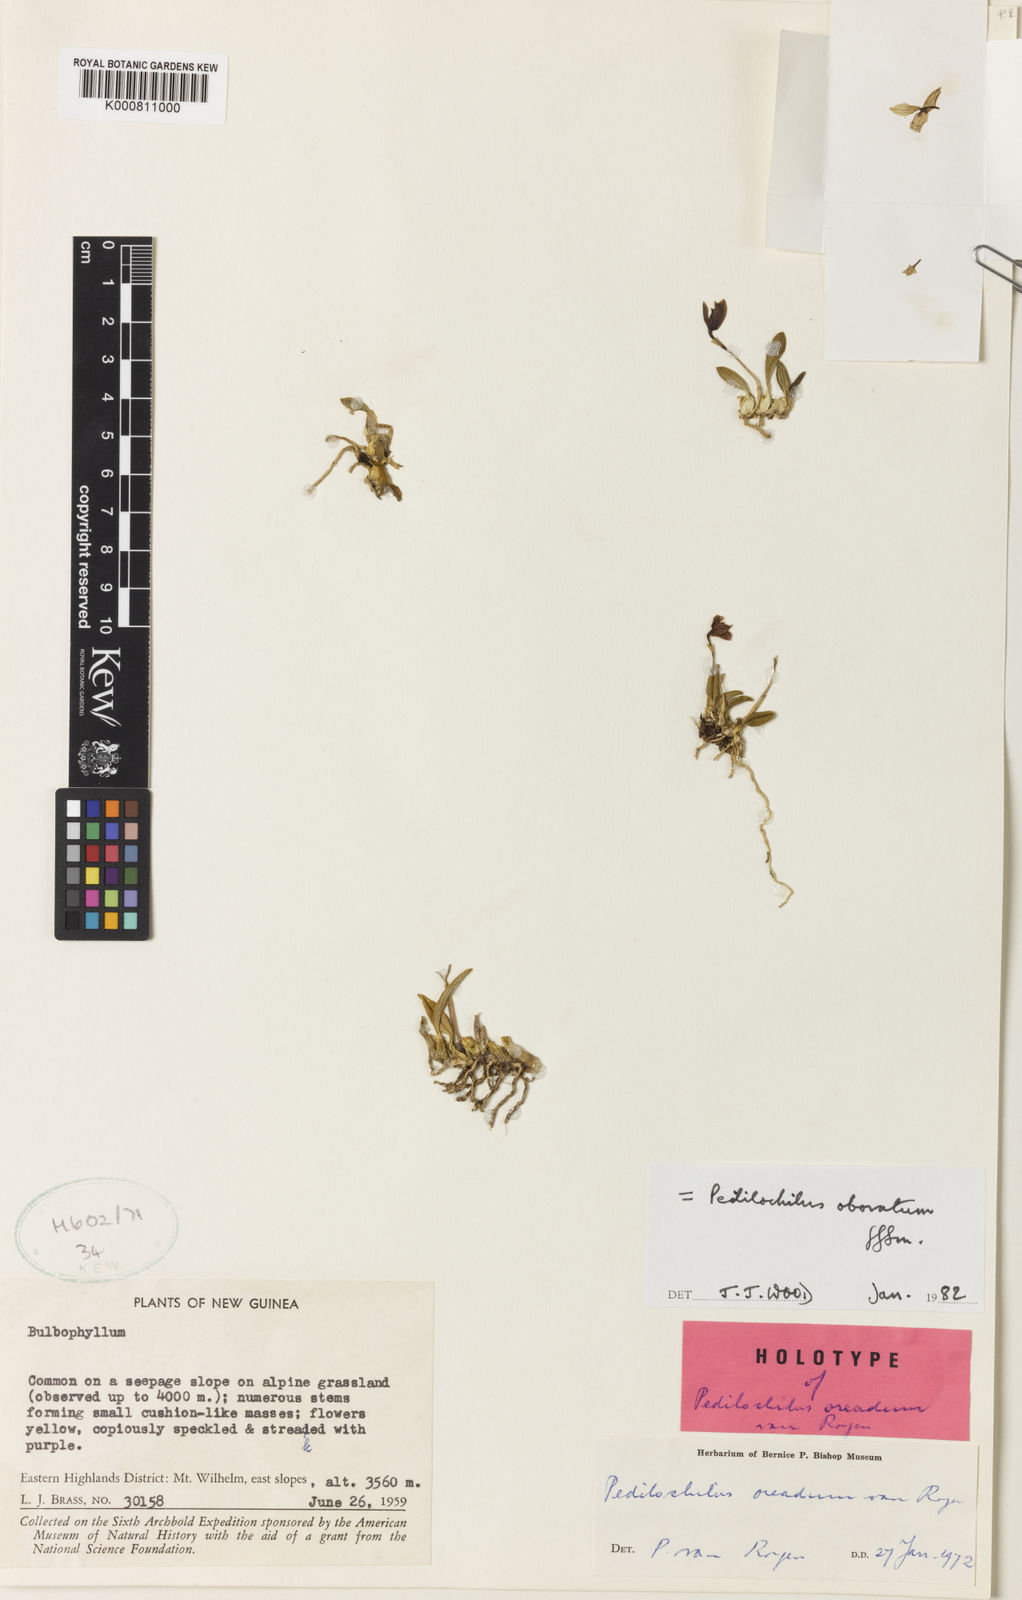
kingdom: Plantae
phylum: Tracheophyta
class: Liliopsida
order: Asparagales
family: Orchidaceae
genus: Bulbophyllum
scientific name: Bulbophyllum obovatum
